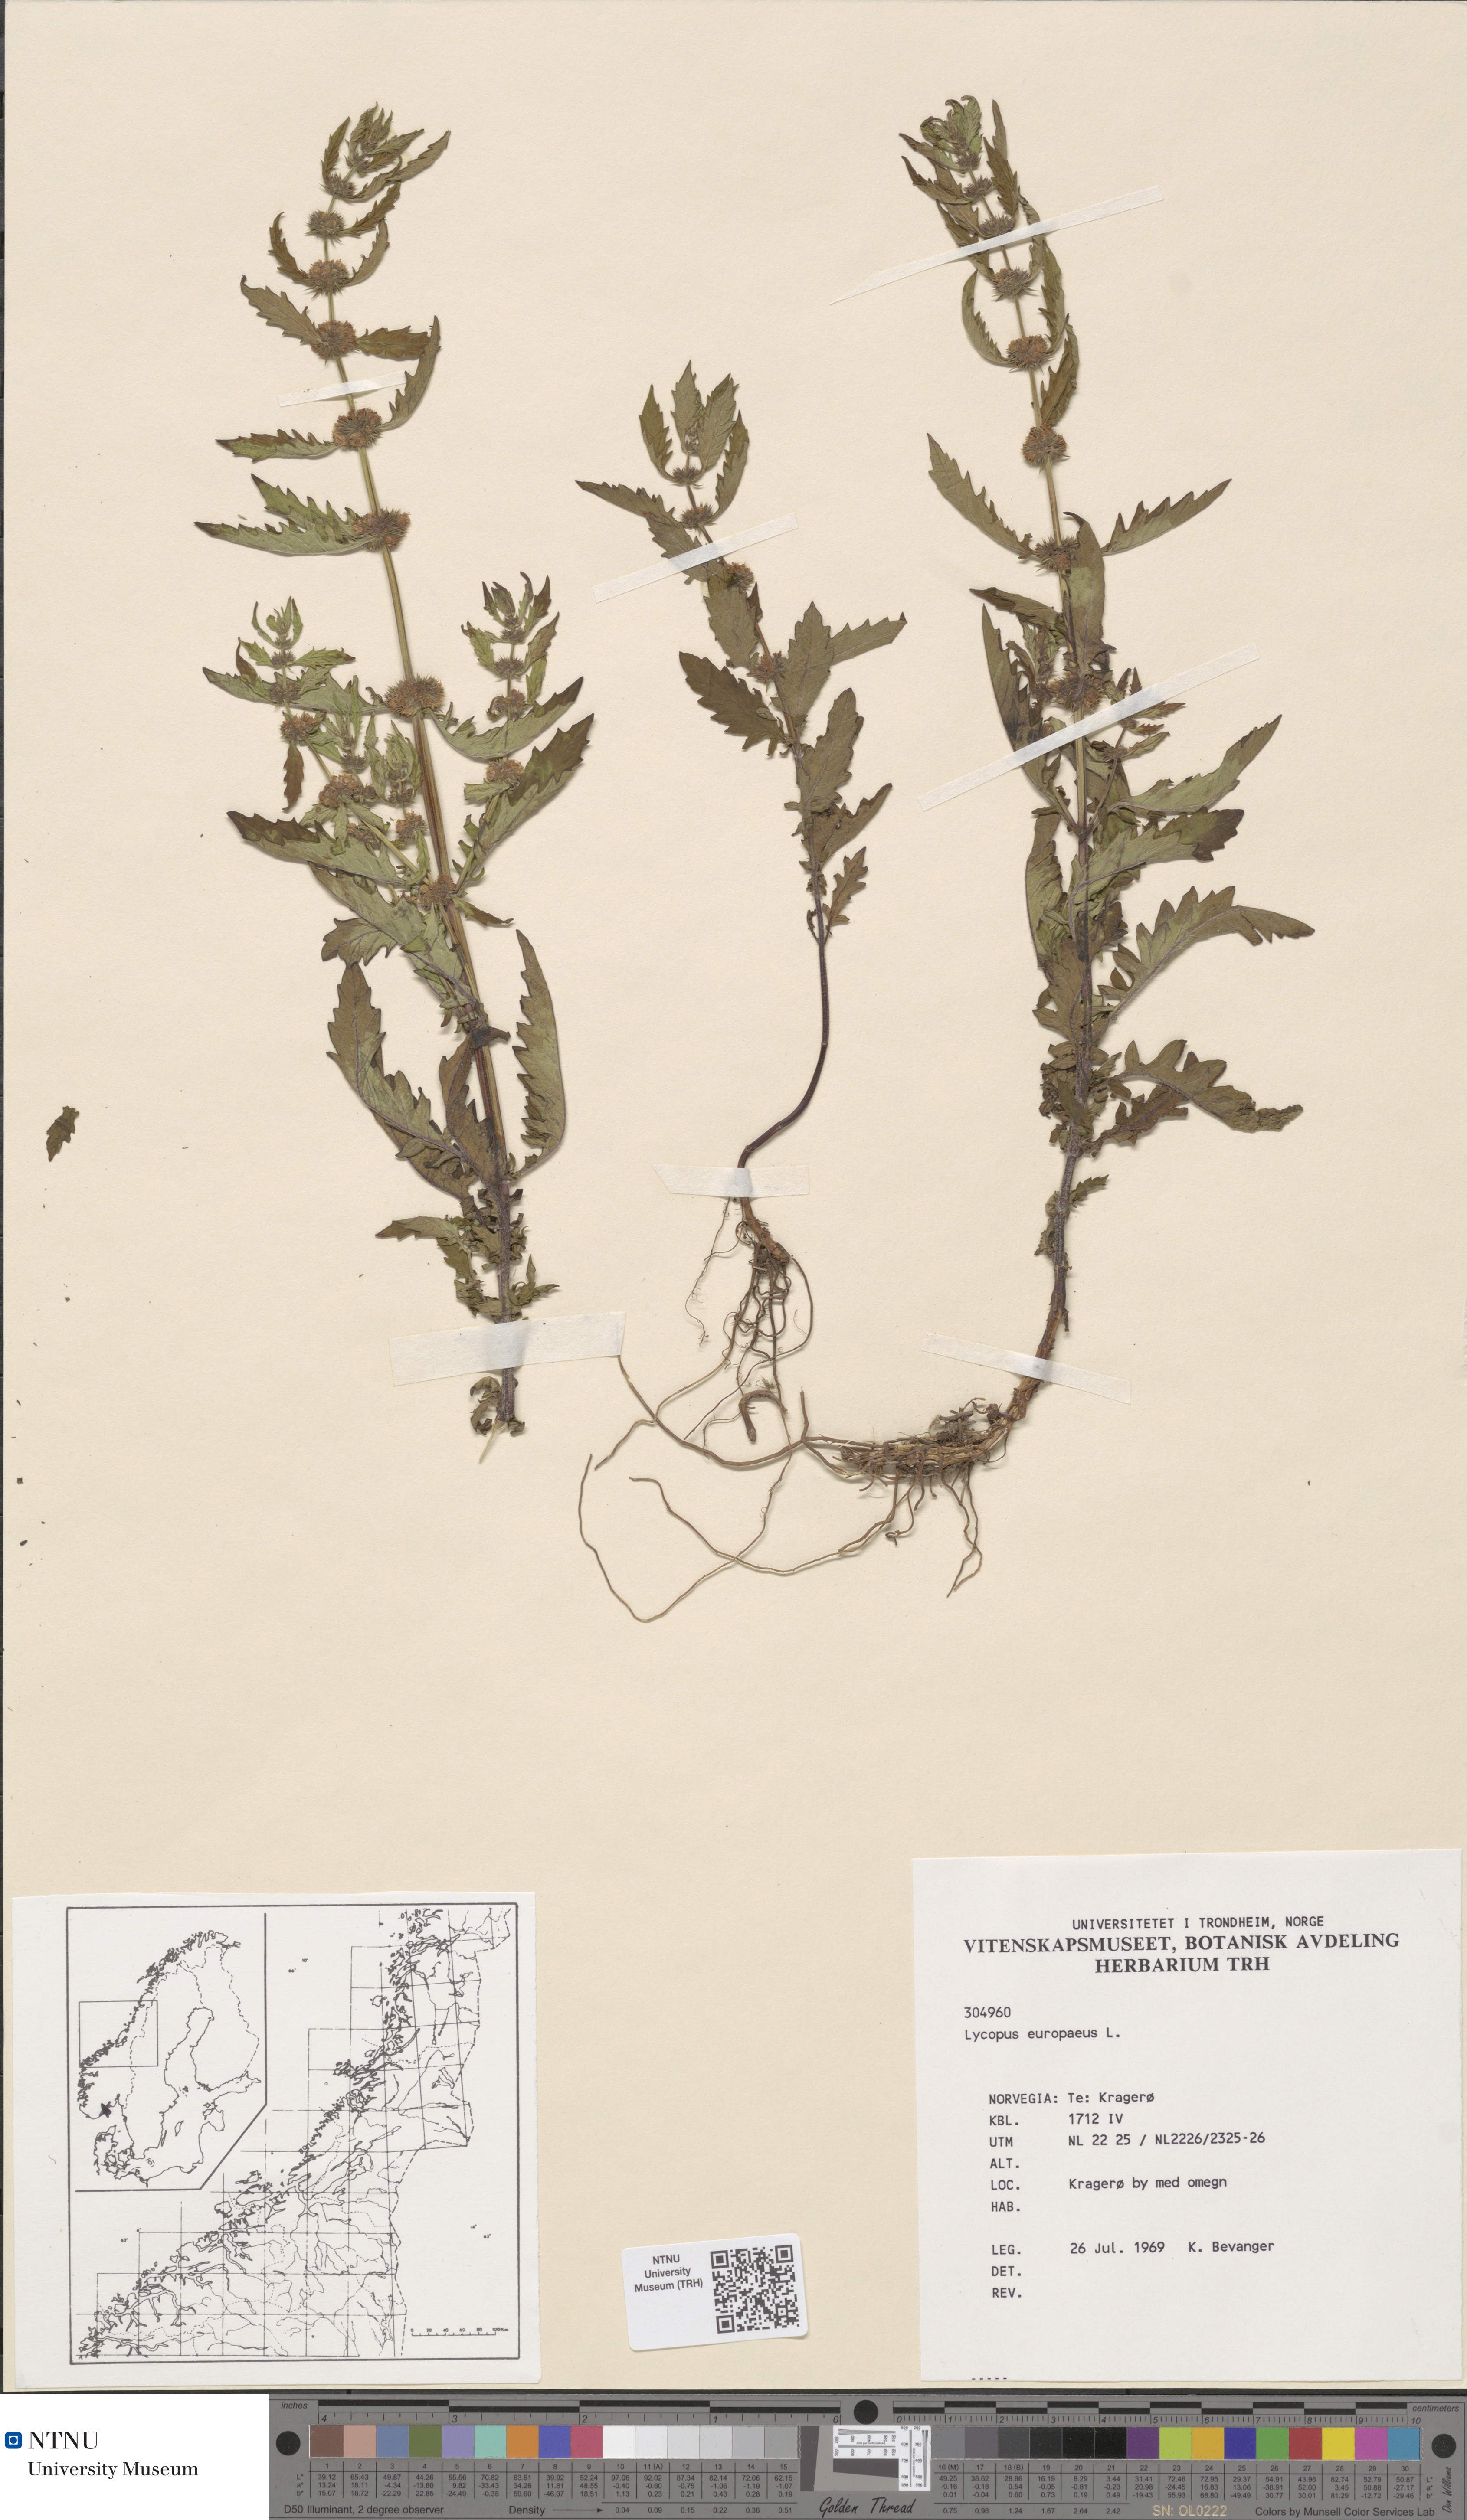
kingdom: Plantae
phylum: Tracheophyta
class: Magnoliopsida
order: Lamiales
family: Lamiaceae
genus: Lycopus
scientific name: Lycopus europaeus
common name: European bugleweed
